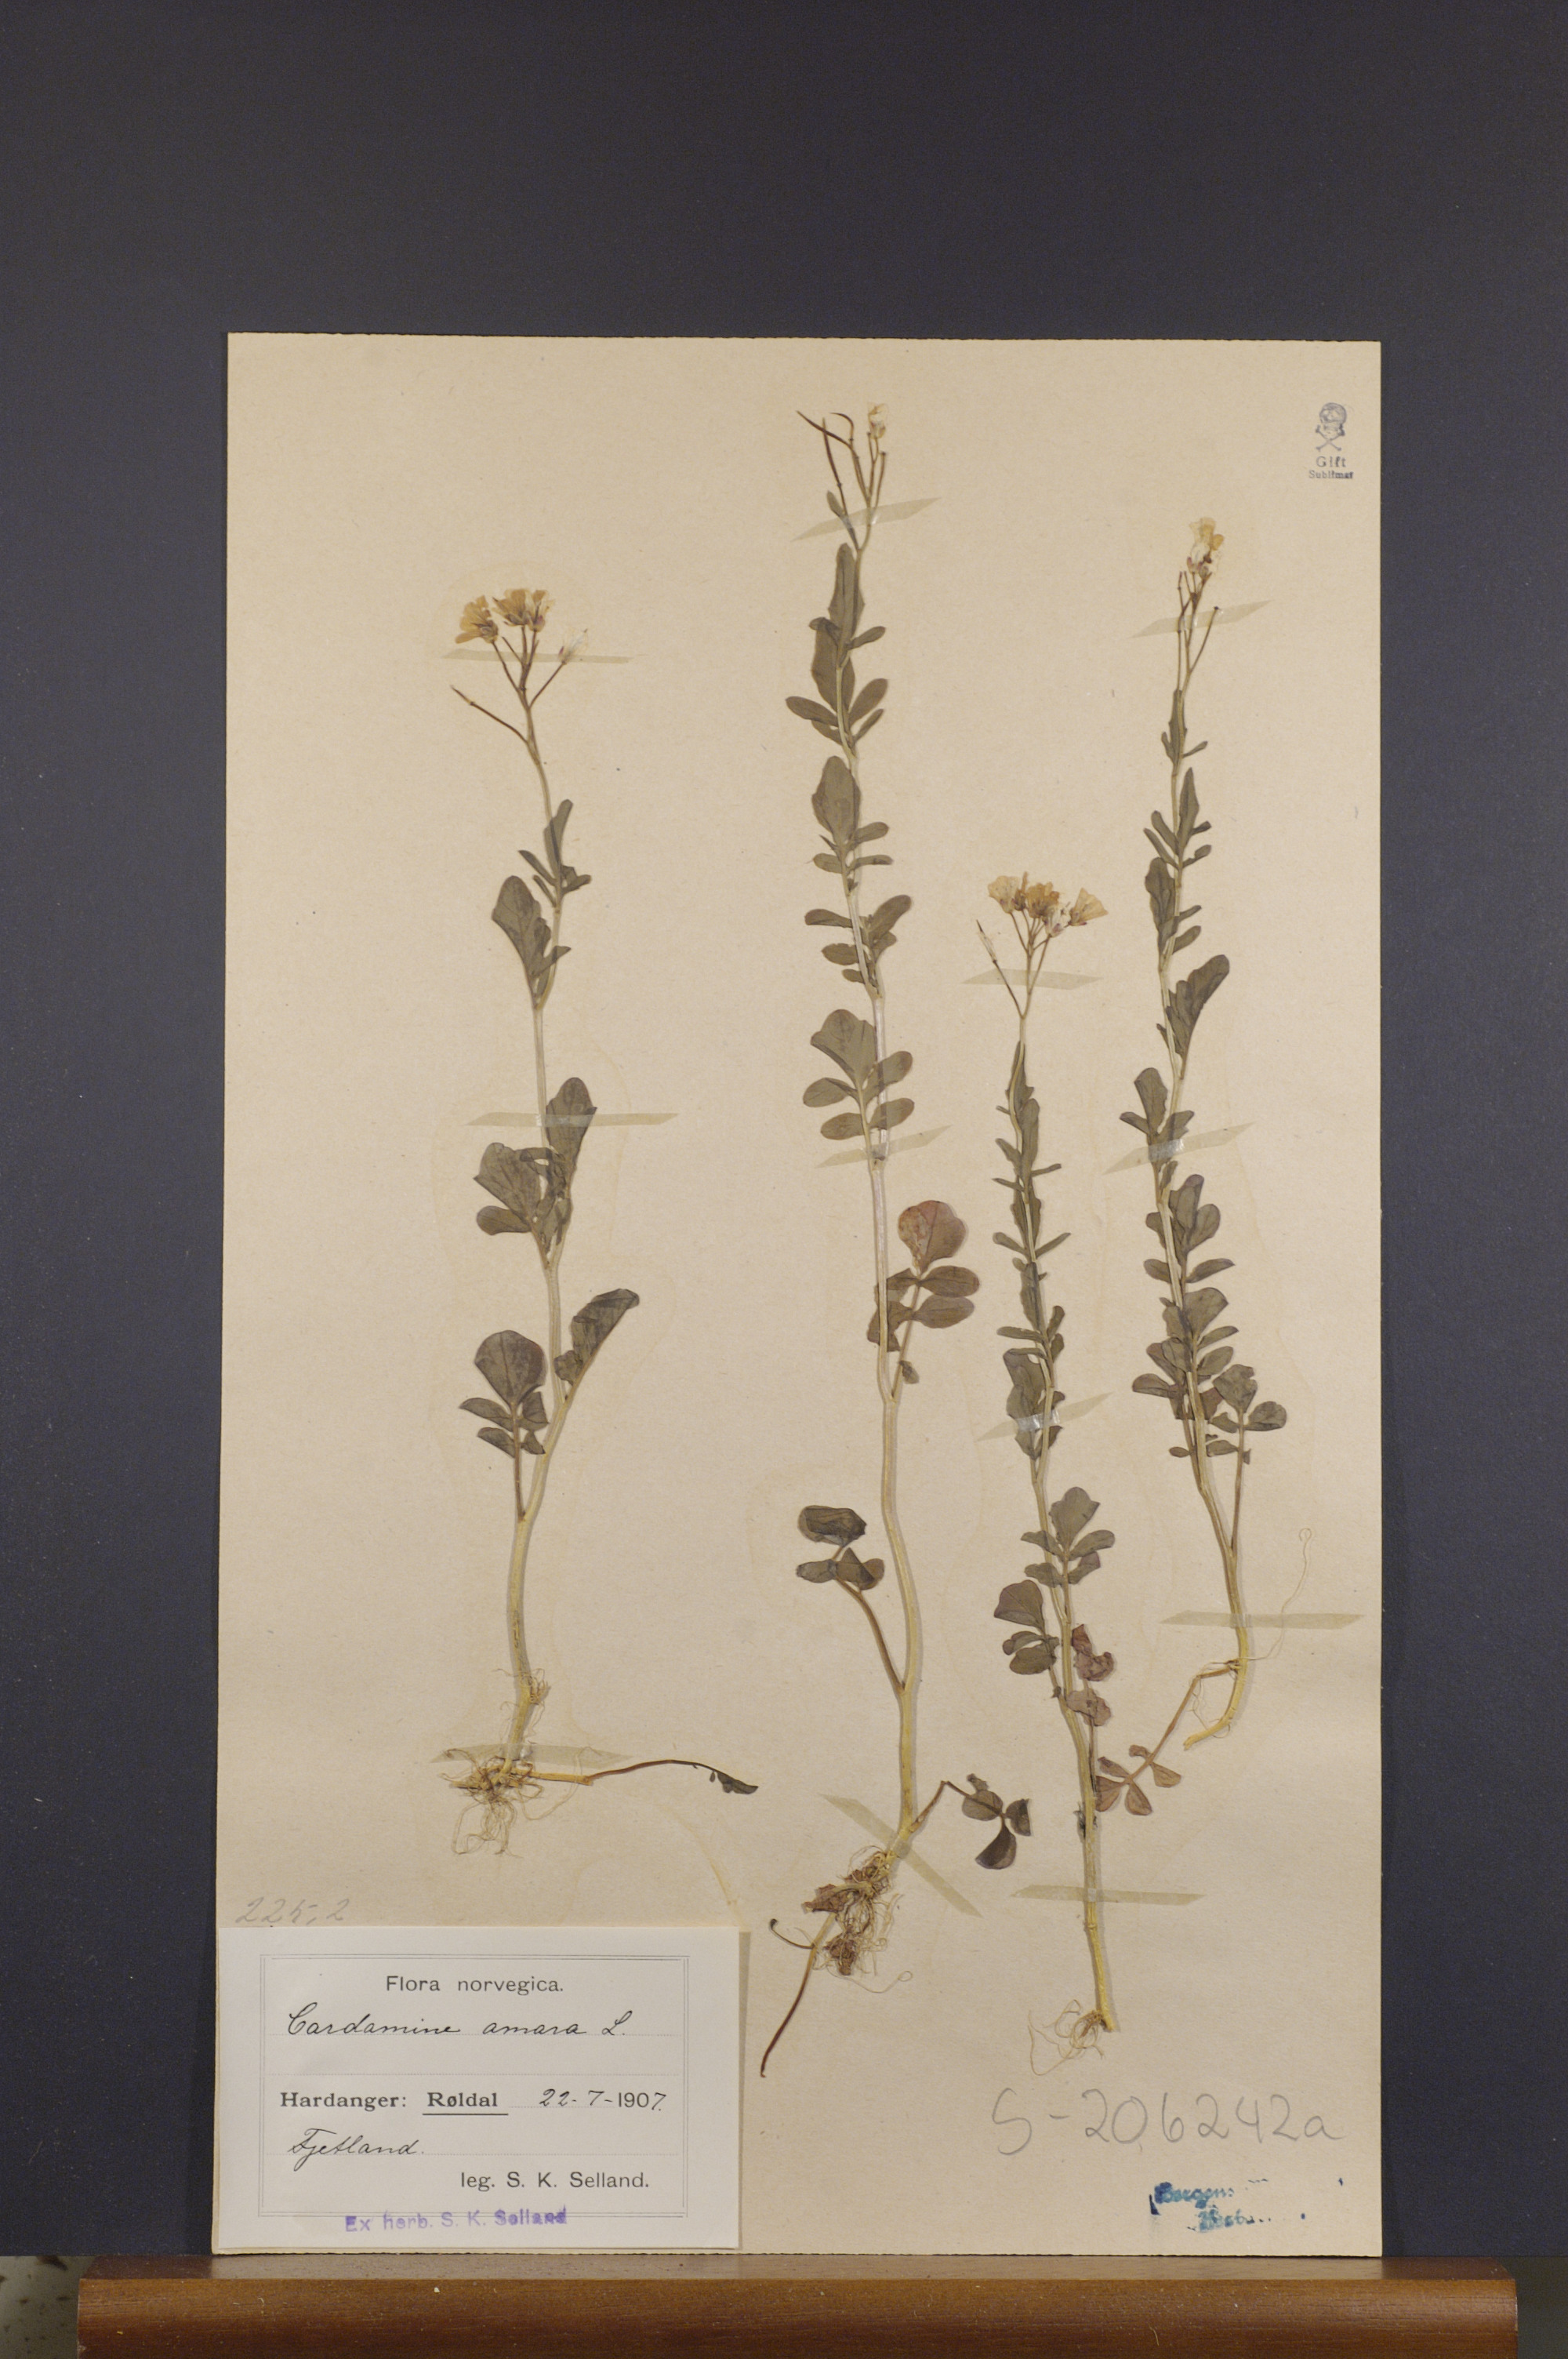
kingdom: Plantae
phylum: Tracheophyta
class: Magnoliopsida
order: Brassicales
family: Brassicaceae
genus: Cardamine
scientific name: Cardamine amara
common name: Large bitter-cress
